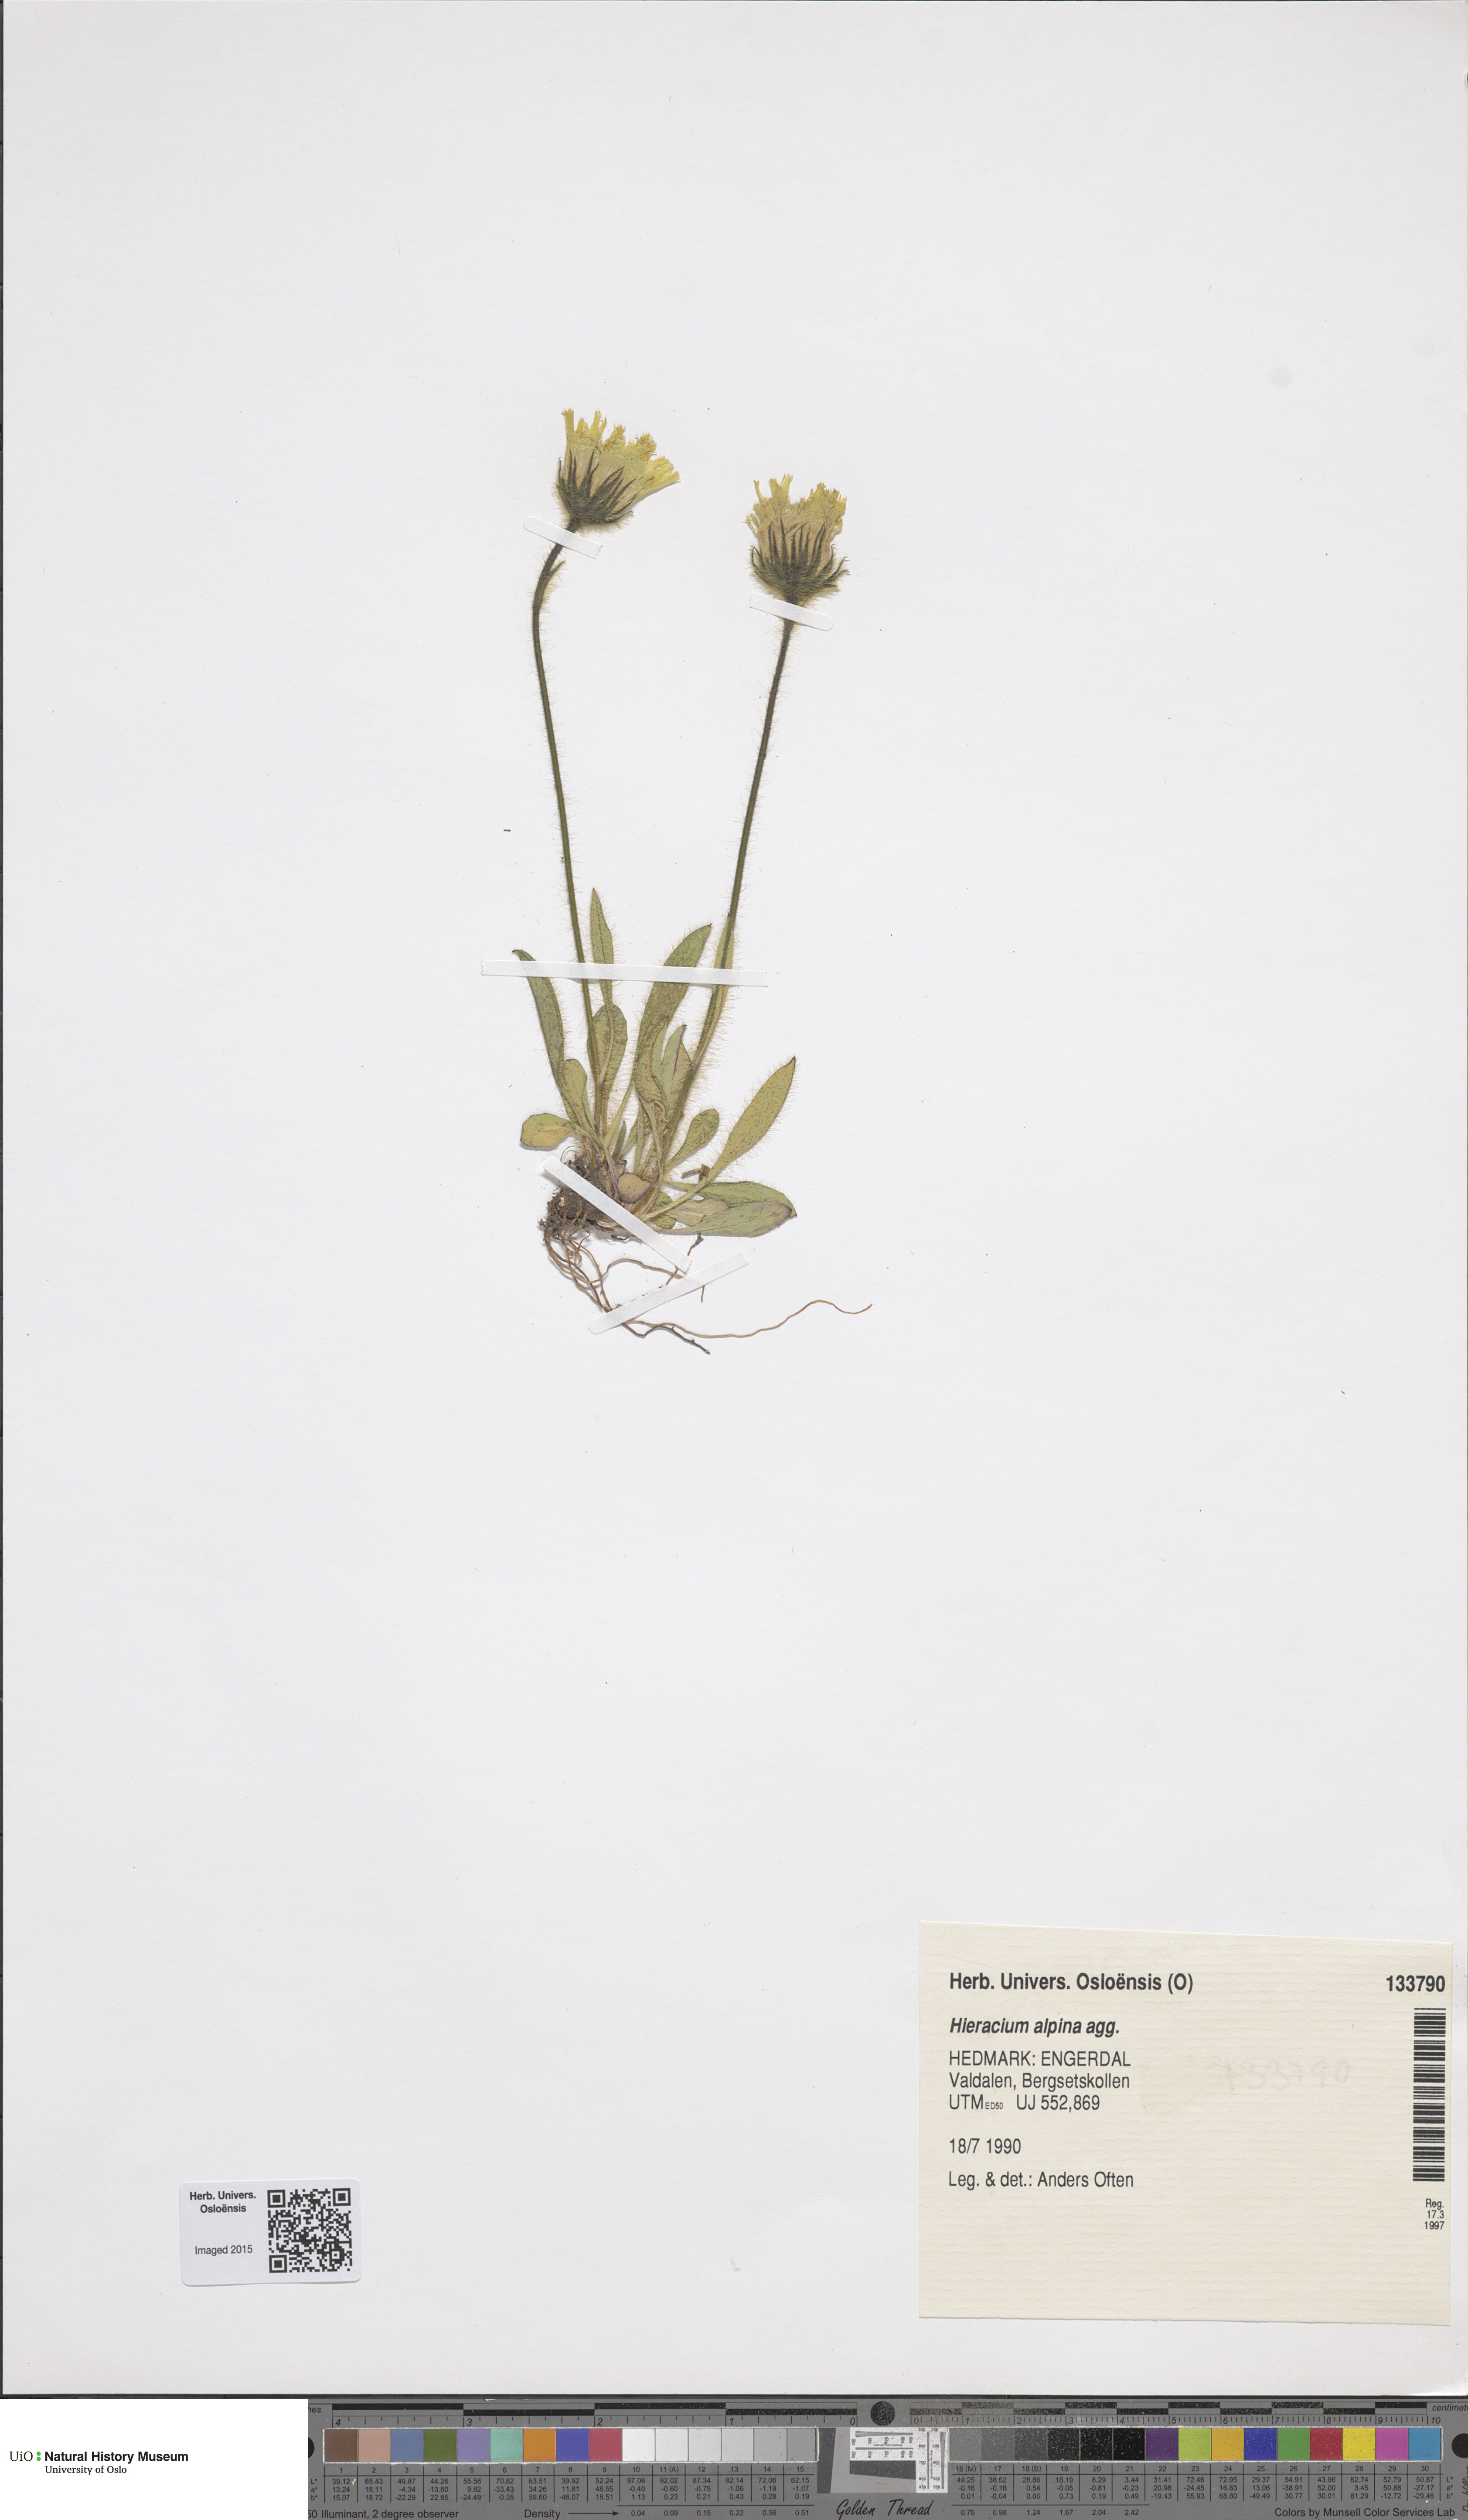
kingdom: Plantae
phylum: Tracheophyta
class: Magnoliopsida
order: Asterales
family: Asteraceae
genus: Hieracium
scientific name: Hieracium alpinum
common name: Alpine hawkweed
